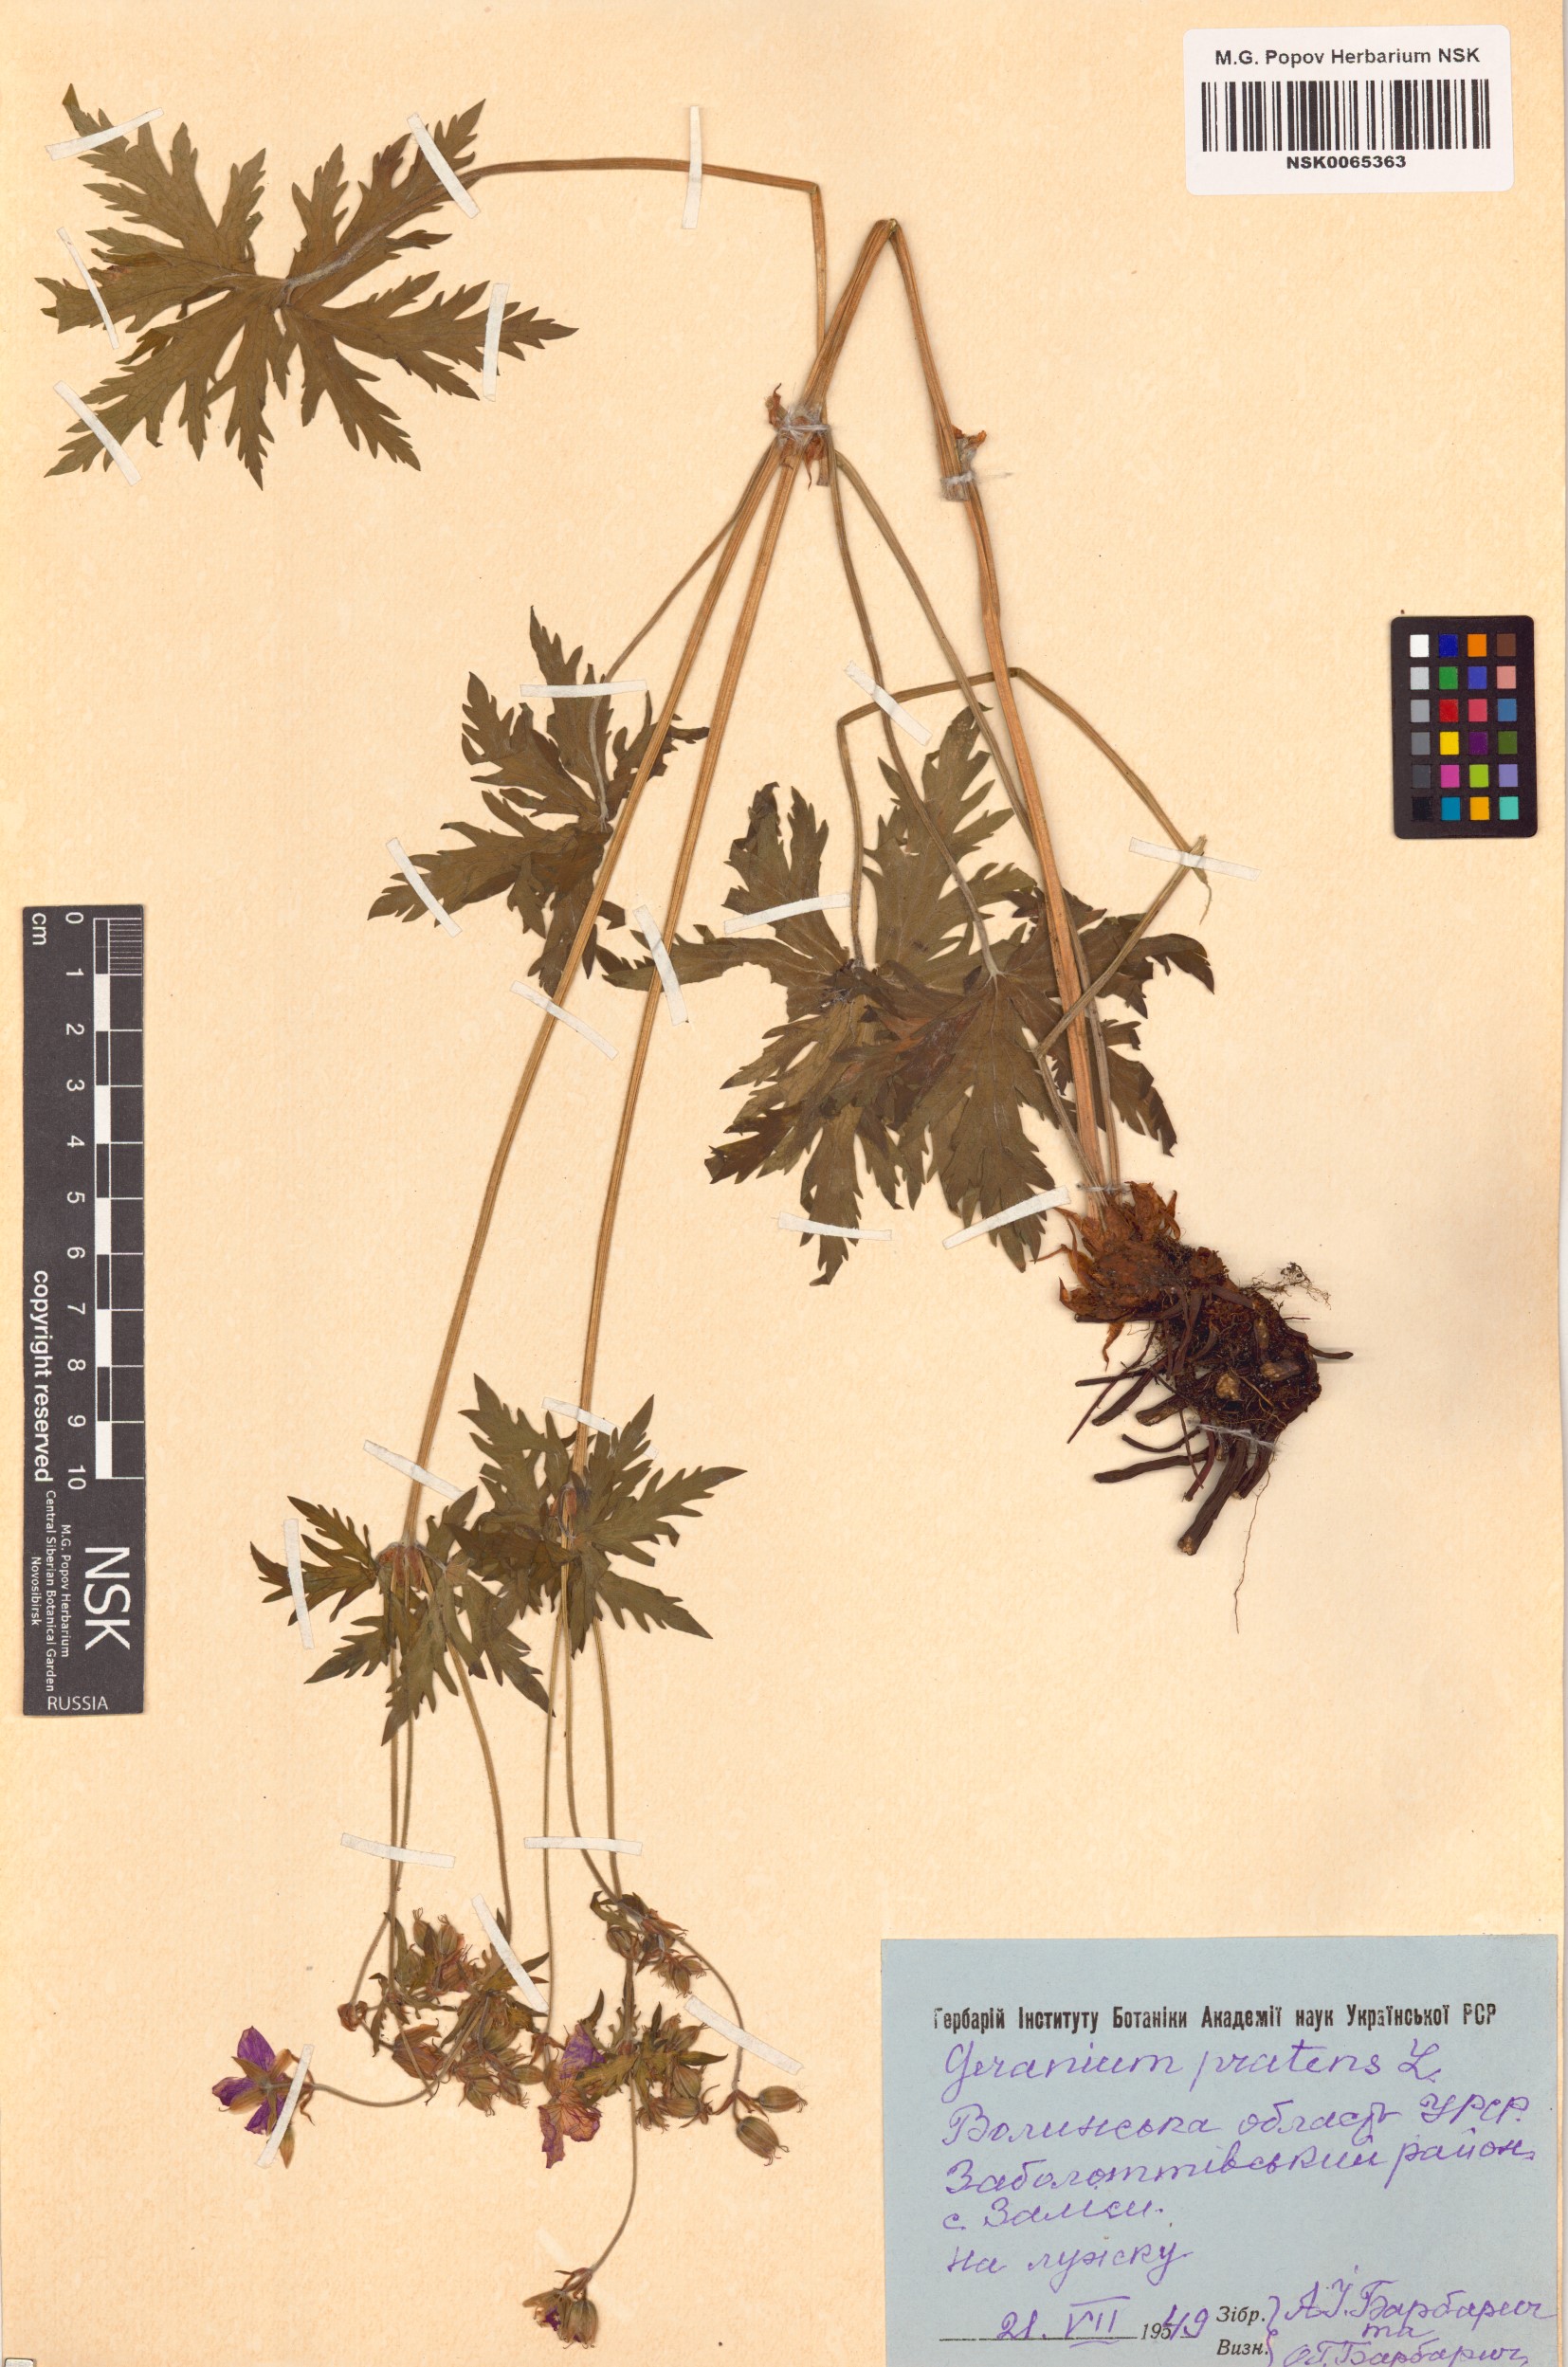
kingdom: Plantae
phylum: Tracheophyta
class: Magnoliopsida
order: Geraniales
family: Geraniaceae
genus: Geranium
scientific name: Geranium pratense
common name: Meadow crane's-bill
